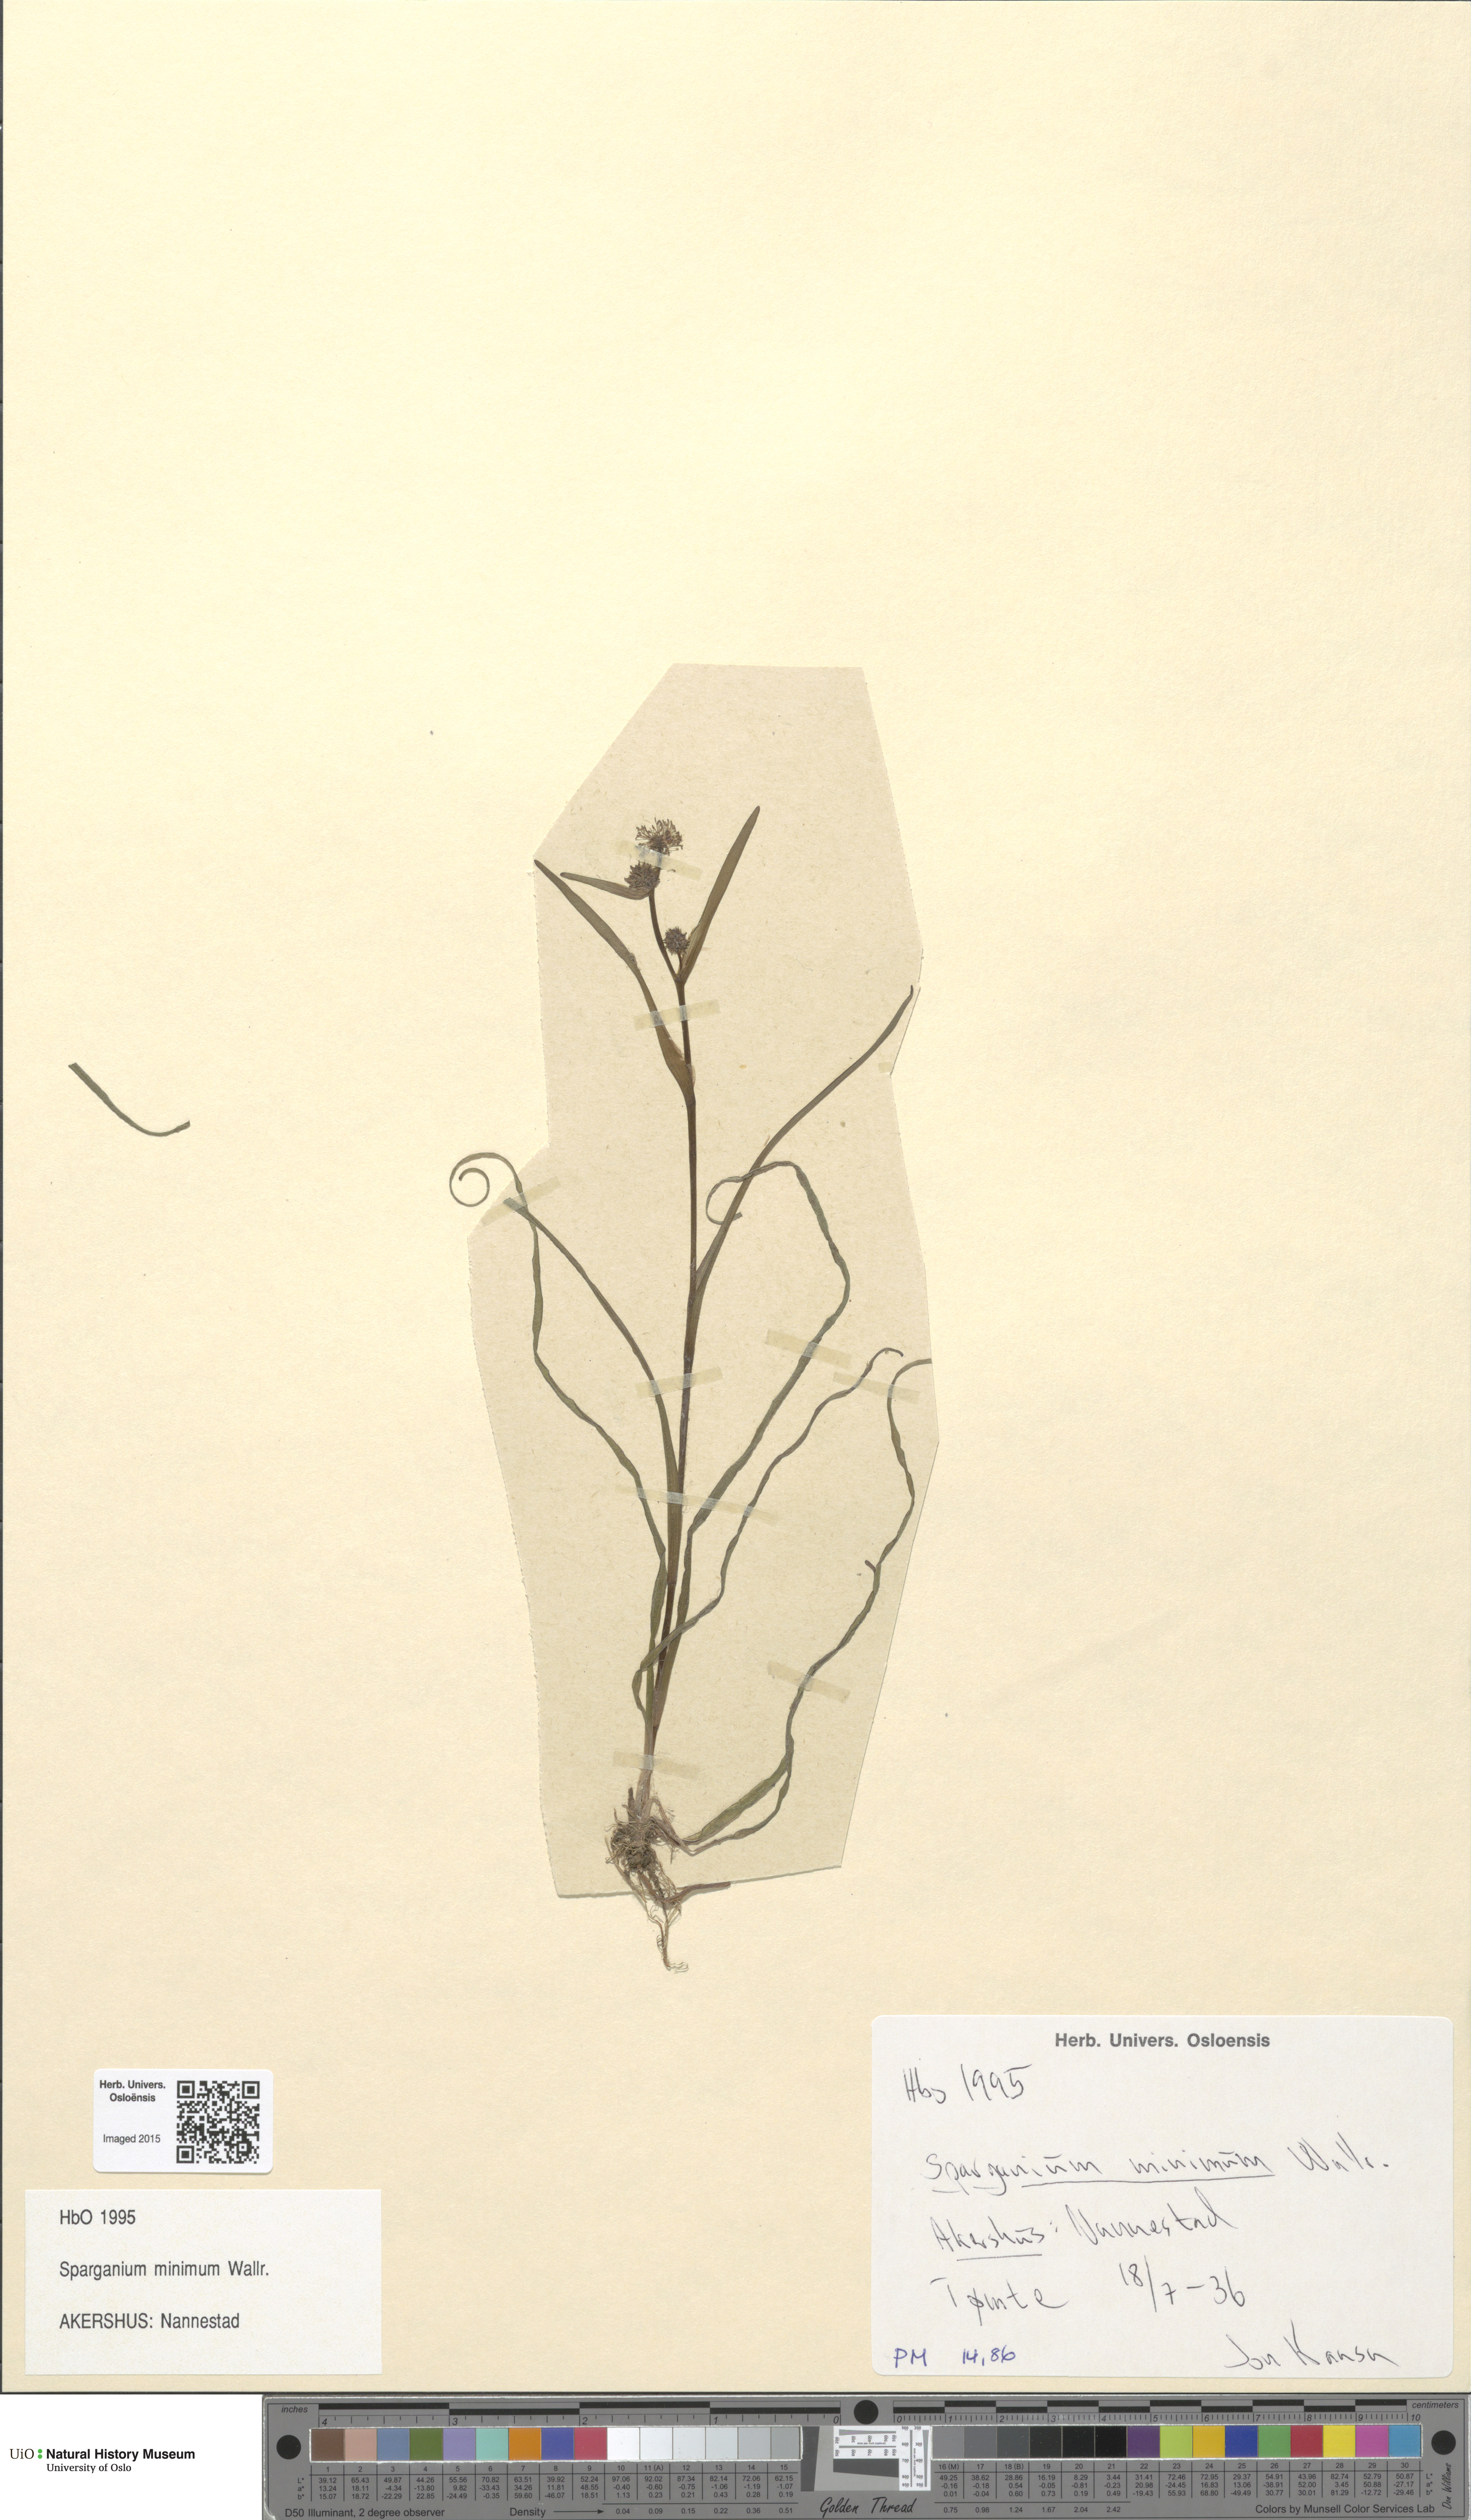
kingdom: Plantae
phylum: Tracheophyta
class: Liliopsida
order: Poales
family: Typhaceae
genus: Sparganium
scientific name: Sparganium natans
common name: Least bur-reed
